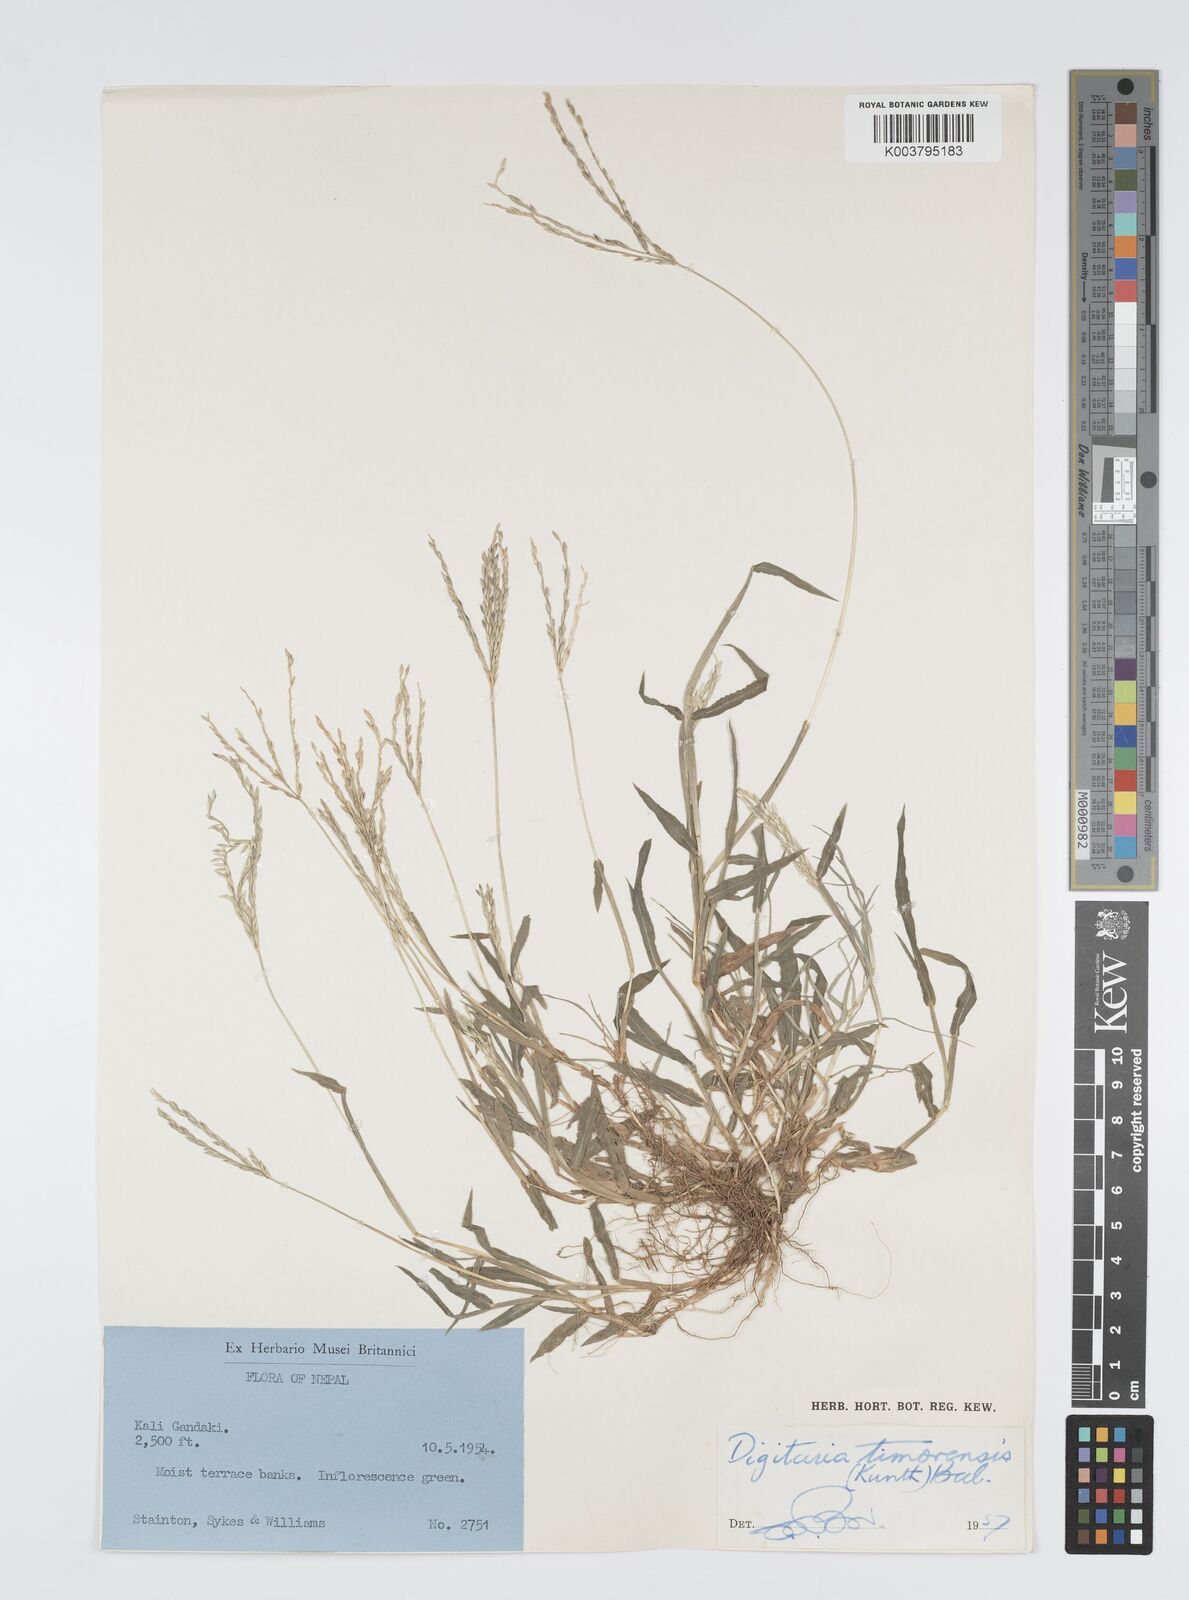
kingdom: Plantae
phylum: Tracheophyta
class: Liliopsida
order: Poales
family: Poaceae
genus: Digitaria
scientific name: Digitaria ciliaris
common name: Tropical finger-grass
